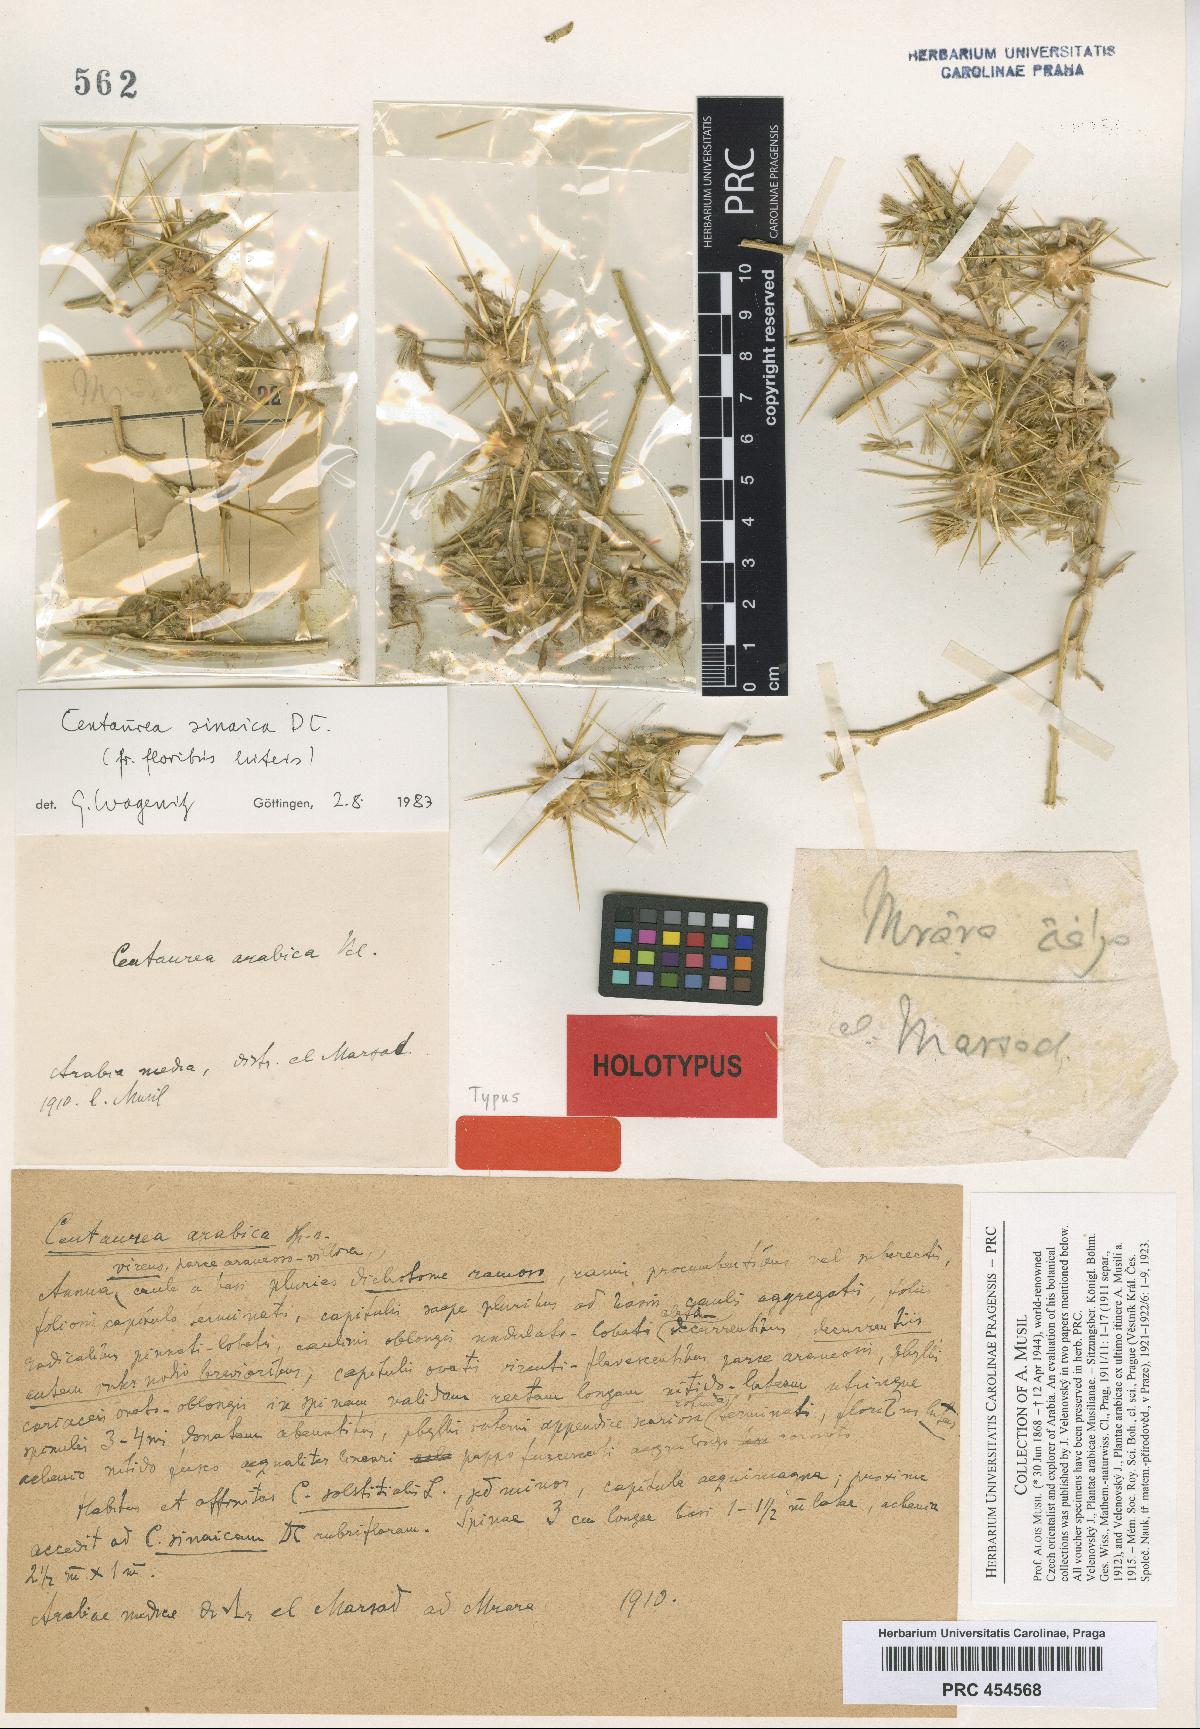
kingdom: Plantae
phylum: Tracheophyta
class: Magnoliopsida
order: Asterales
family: Asteraceae
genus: Centaurea
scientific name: Centaurea sinaica
